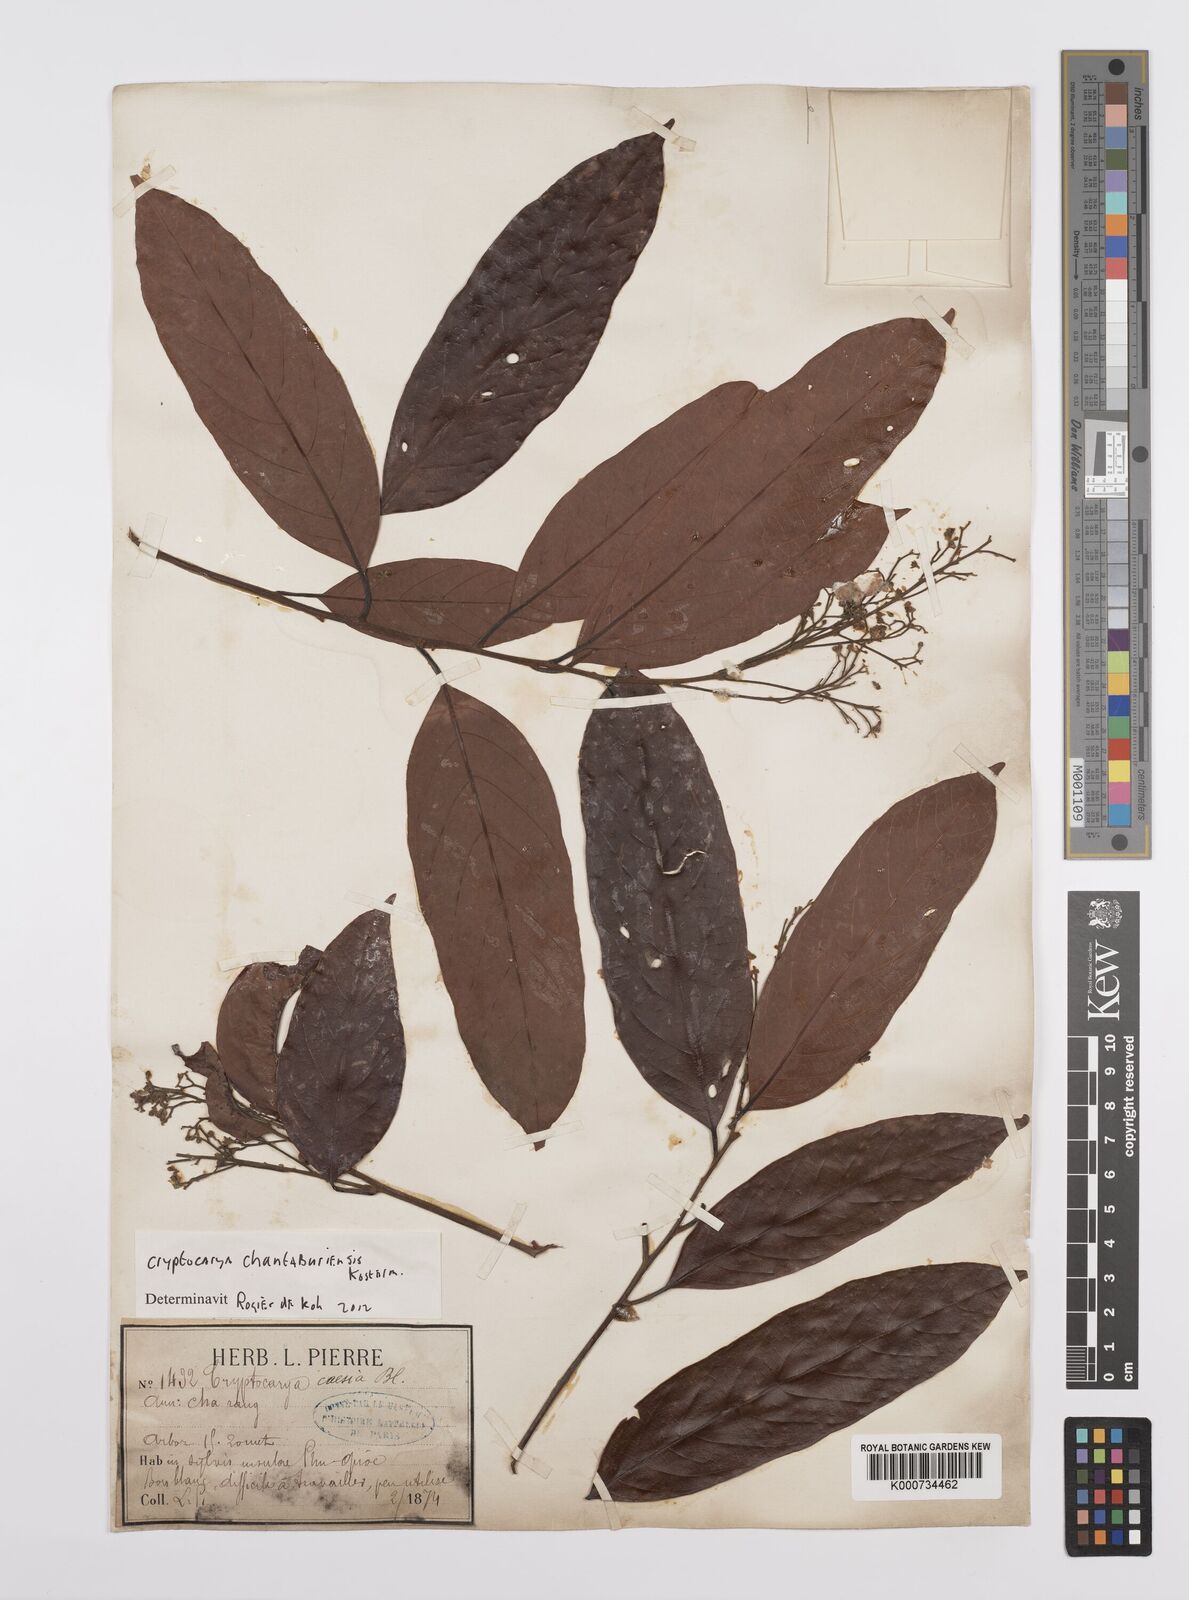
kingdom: Plantae
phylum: Tracheophyta
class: Magnoliopsida
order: Laurales
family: Lauraceae
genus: Cryptocarya
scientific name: Cryptocarya chanthaburiensis
